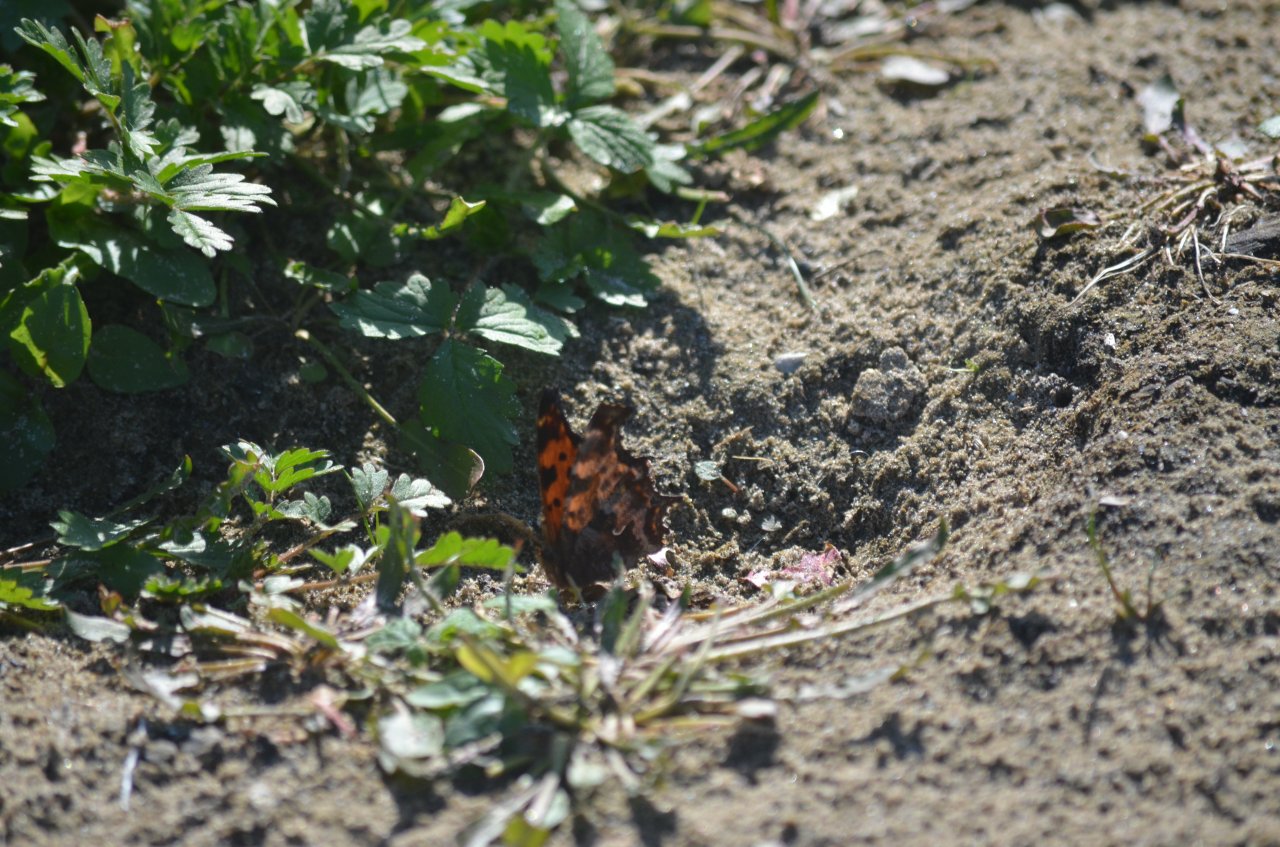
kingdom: Animalia
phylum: Arthropoda
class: Insecta
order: Lepidoptera
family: Nymphalidae
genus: Polygonia
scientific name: Polygonia comma
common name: Eastern Comma
